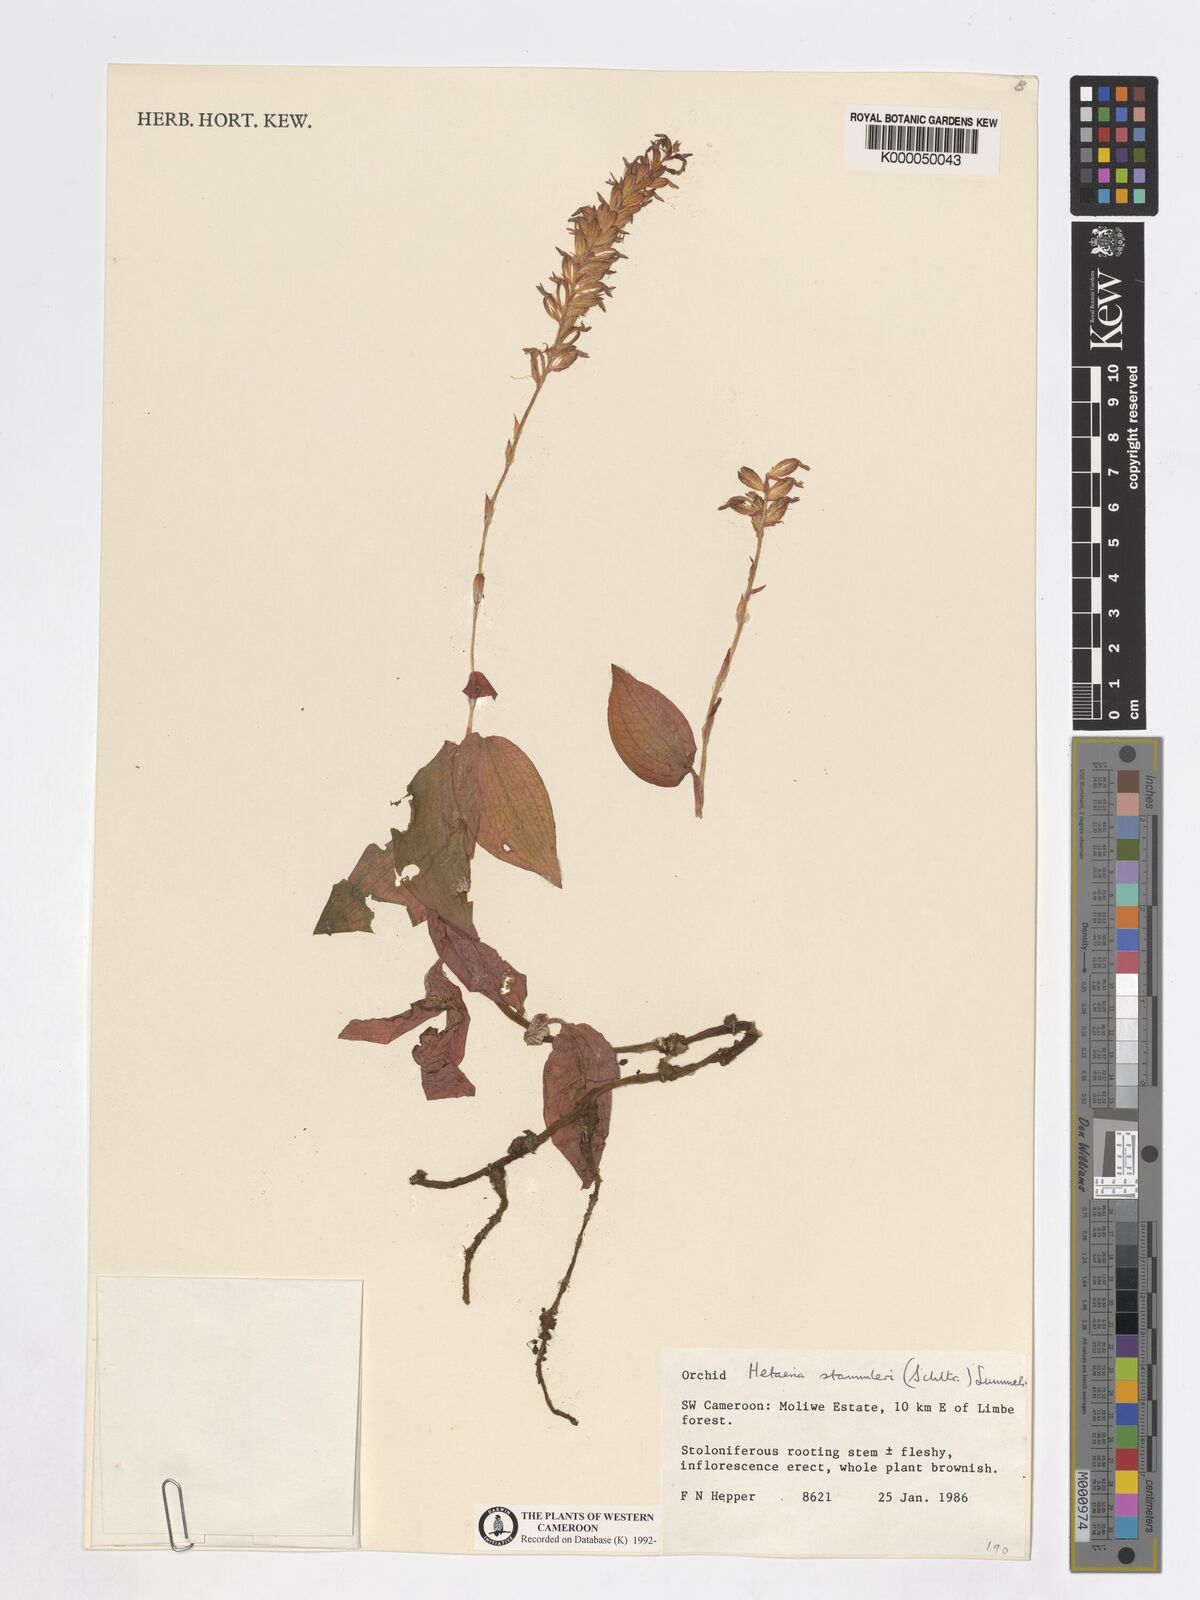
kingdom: Plantae
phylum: Tracheophyta
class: Liliopsida
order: Asparagales
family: Orchidaceae
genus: Zeuxine
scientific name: Zeuxine stammleri
